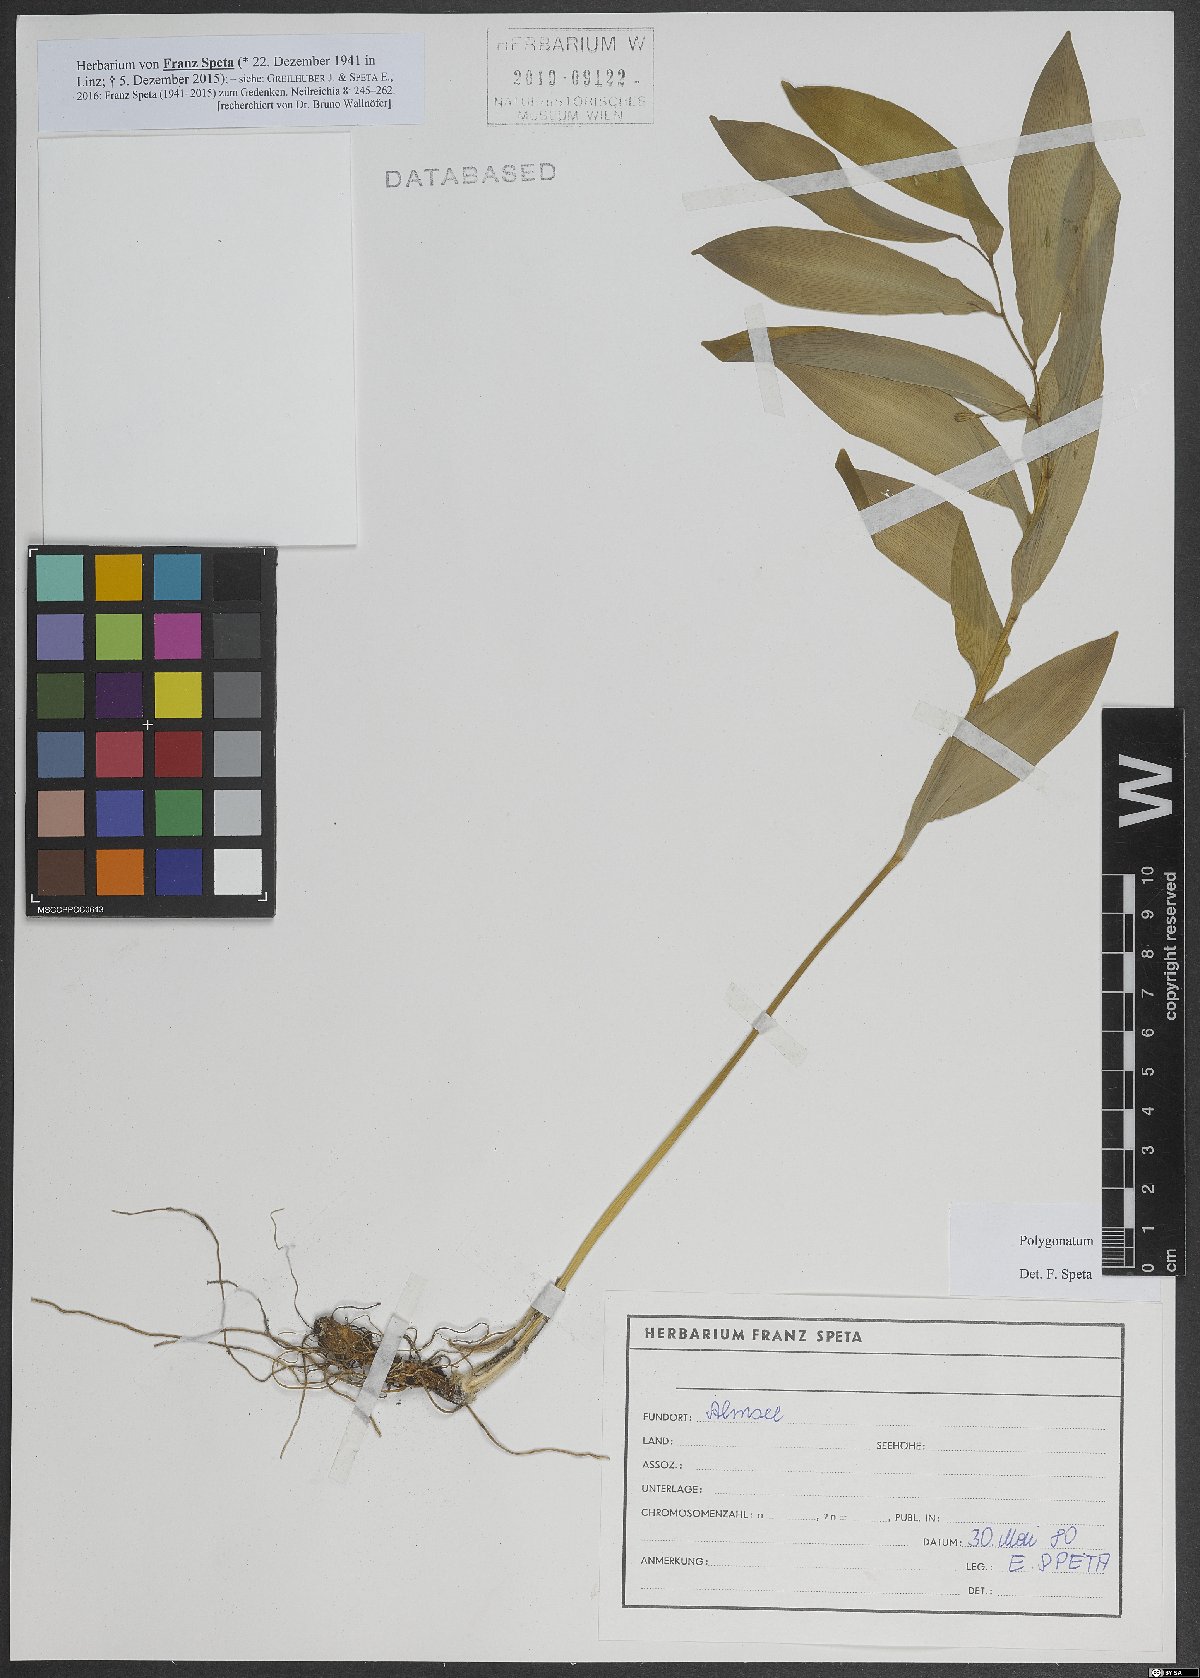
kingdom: Plantae
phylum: Tracheophyta
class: Liliopsida
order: Asparagales
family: Asparagaceae
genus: Polygonatum
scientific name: Polygonatum
